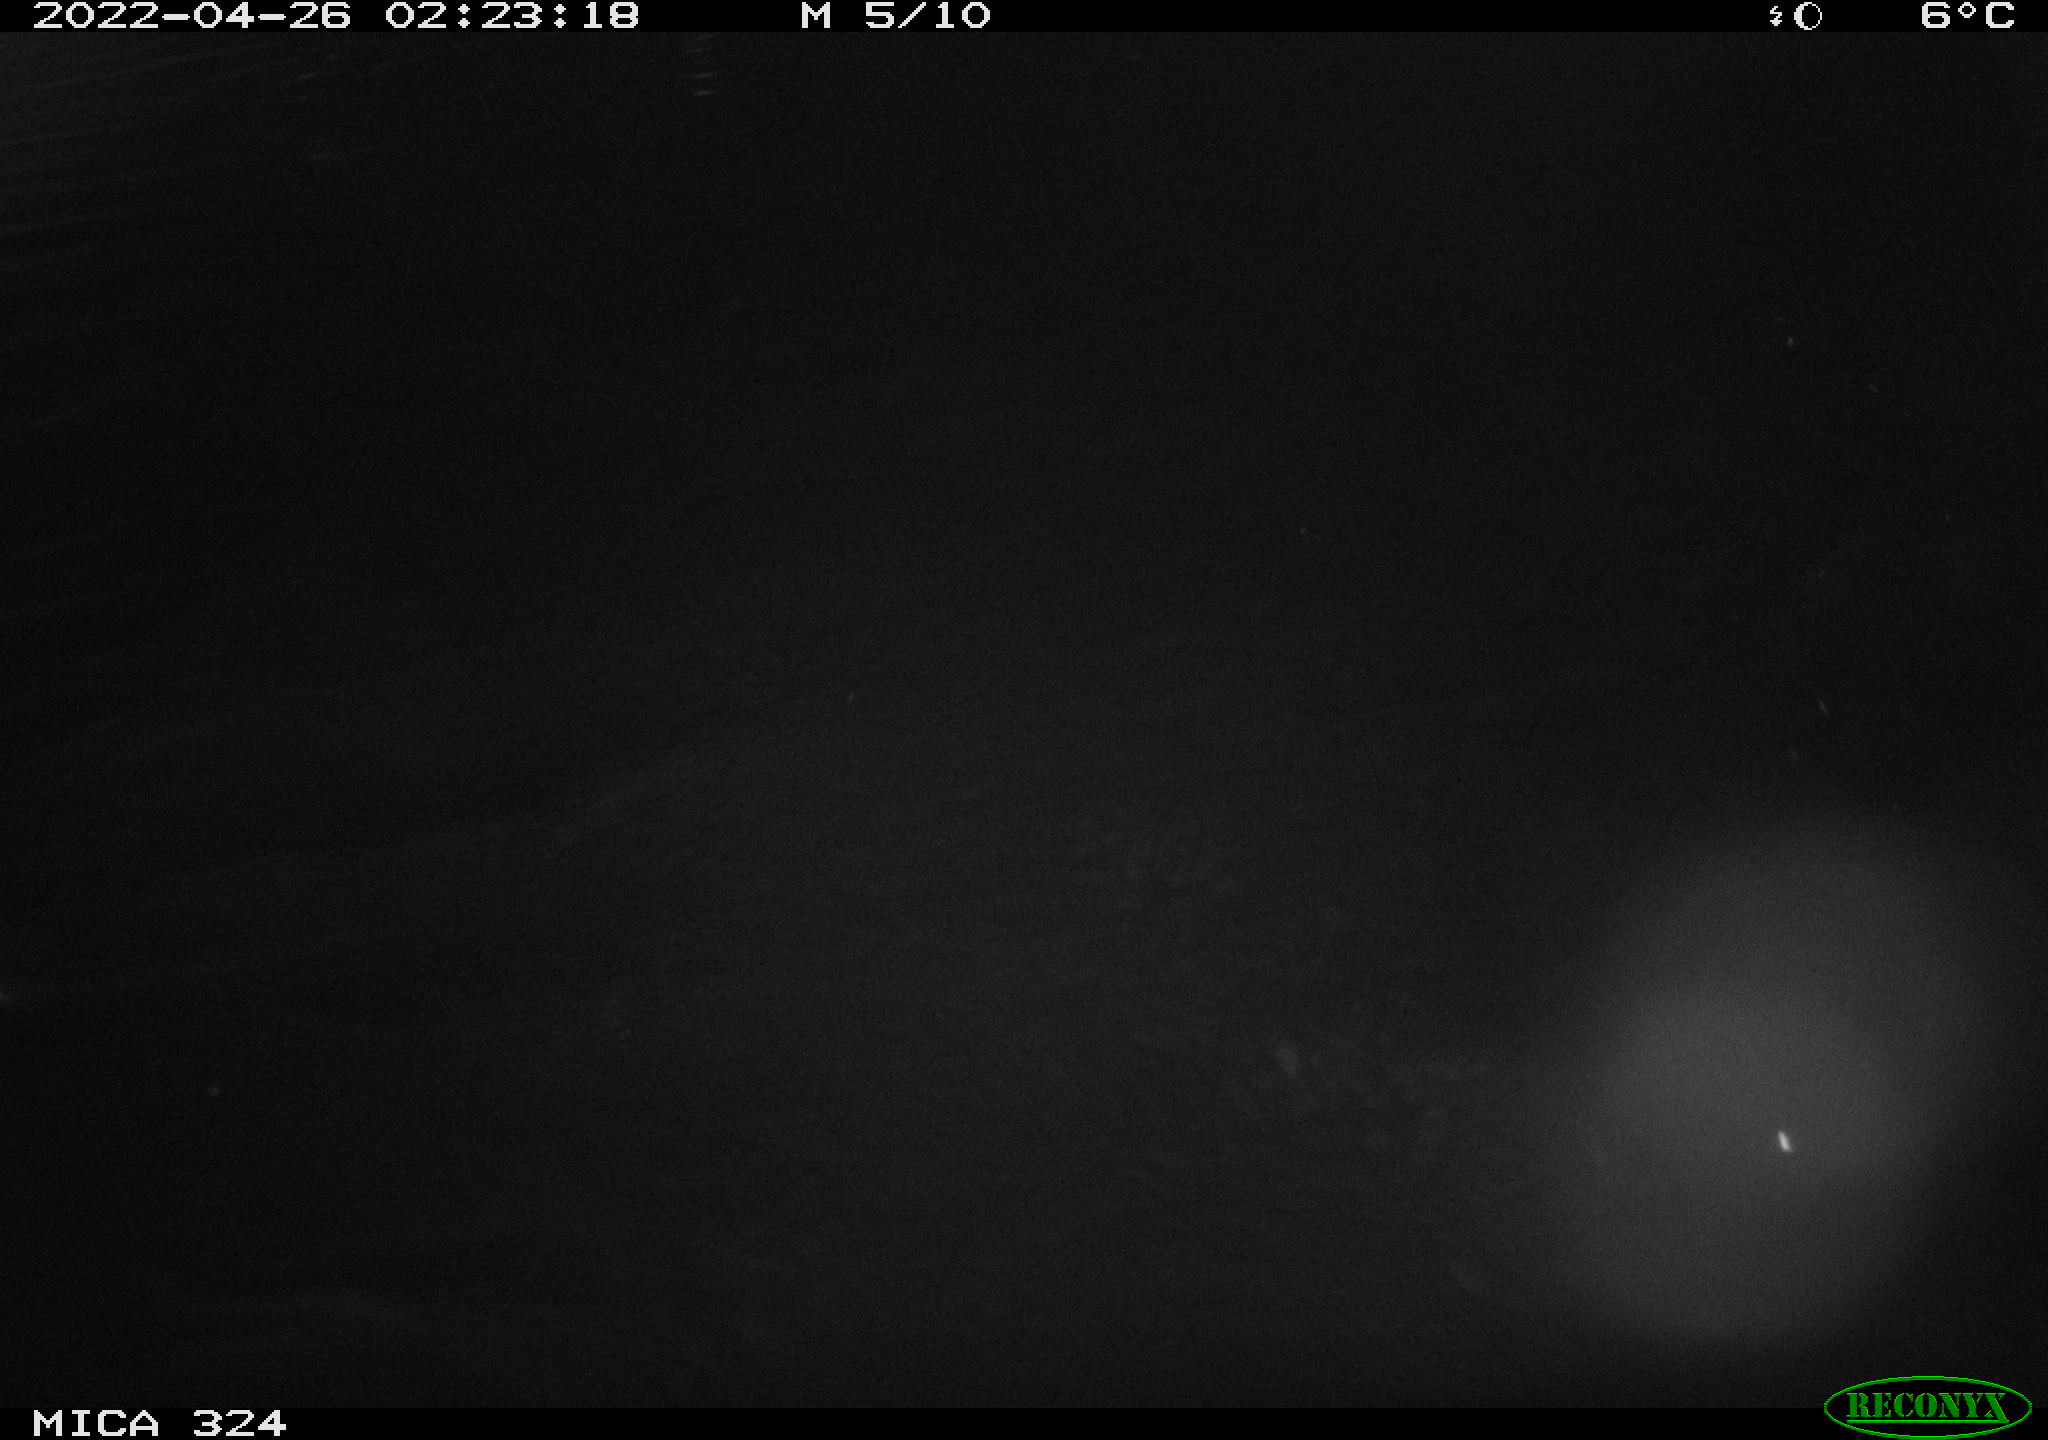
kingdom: Animalia
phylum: Chordata
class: Aves
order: Anseriformes
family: Anatidae
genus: Anas
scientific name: Anas
